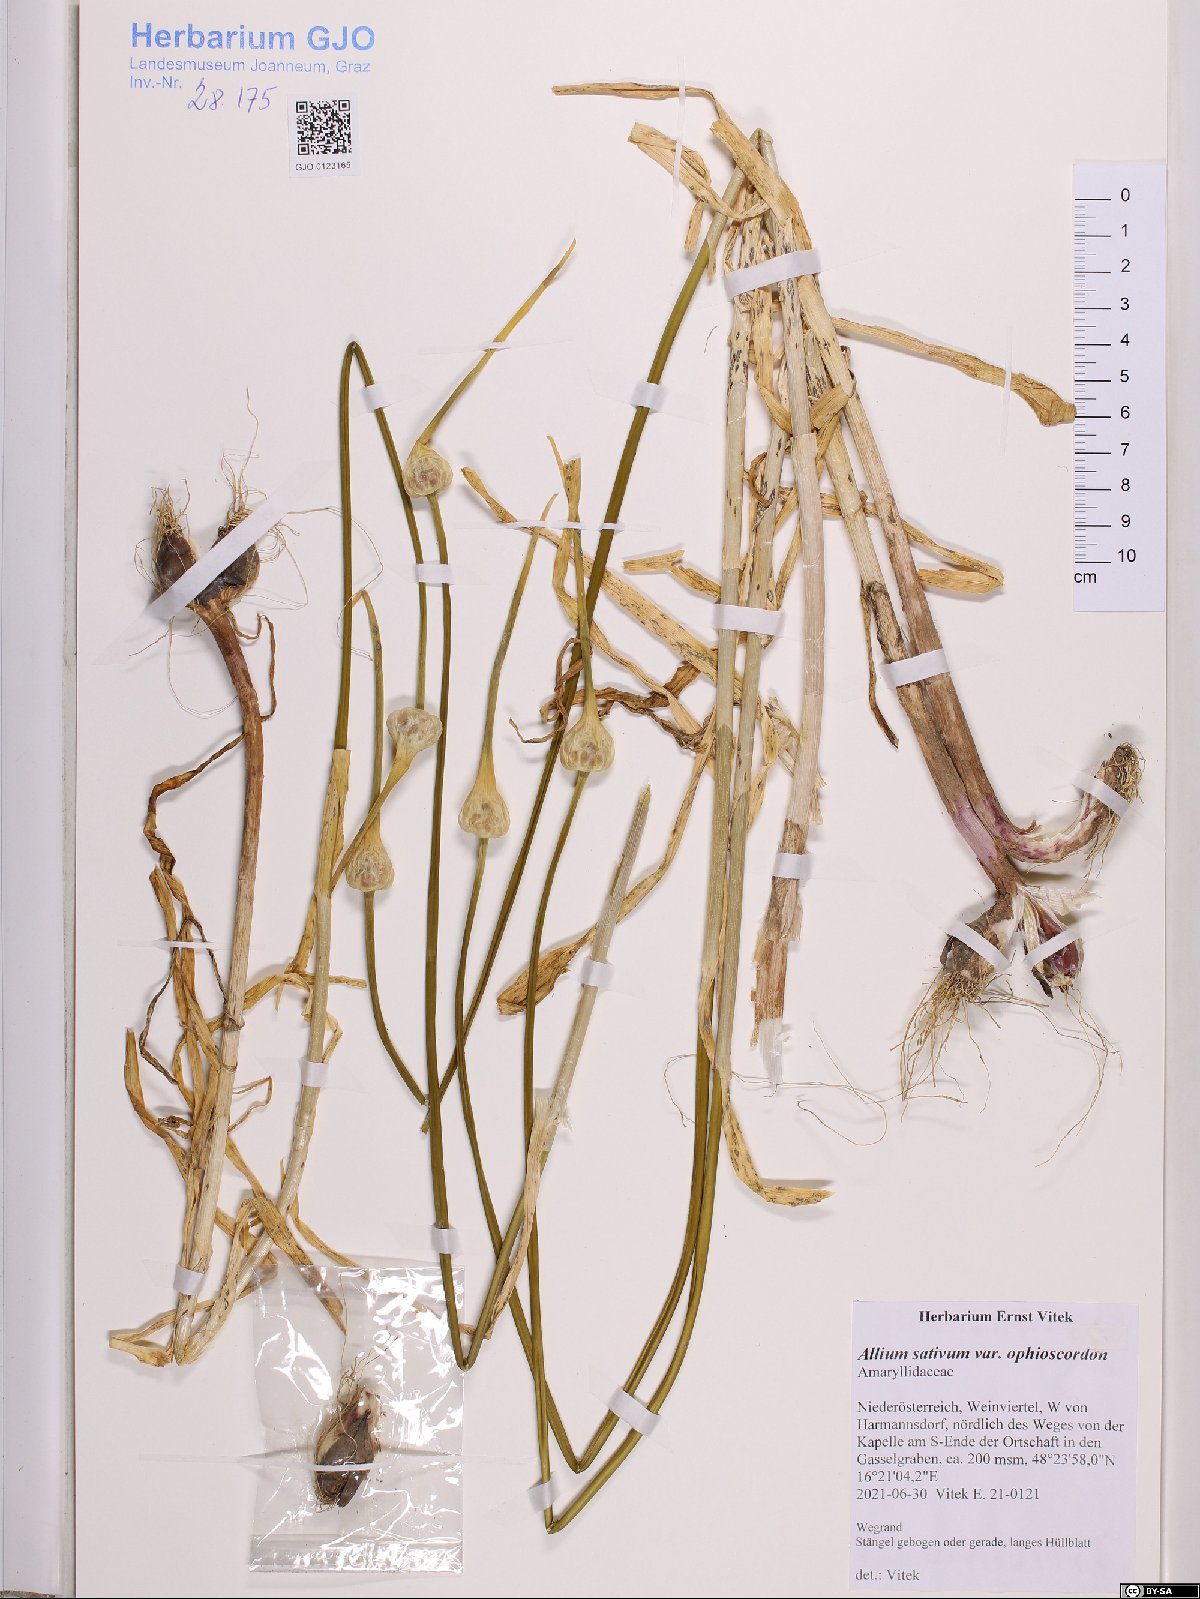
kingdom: Plantae
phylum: Tracheophyta
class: Liliopsida
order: Asparagales
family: Amaryllidaceae
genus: Allium
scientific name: Allium sativum
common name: Garlic
